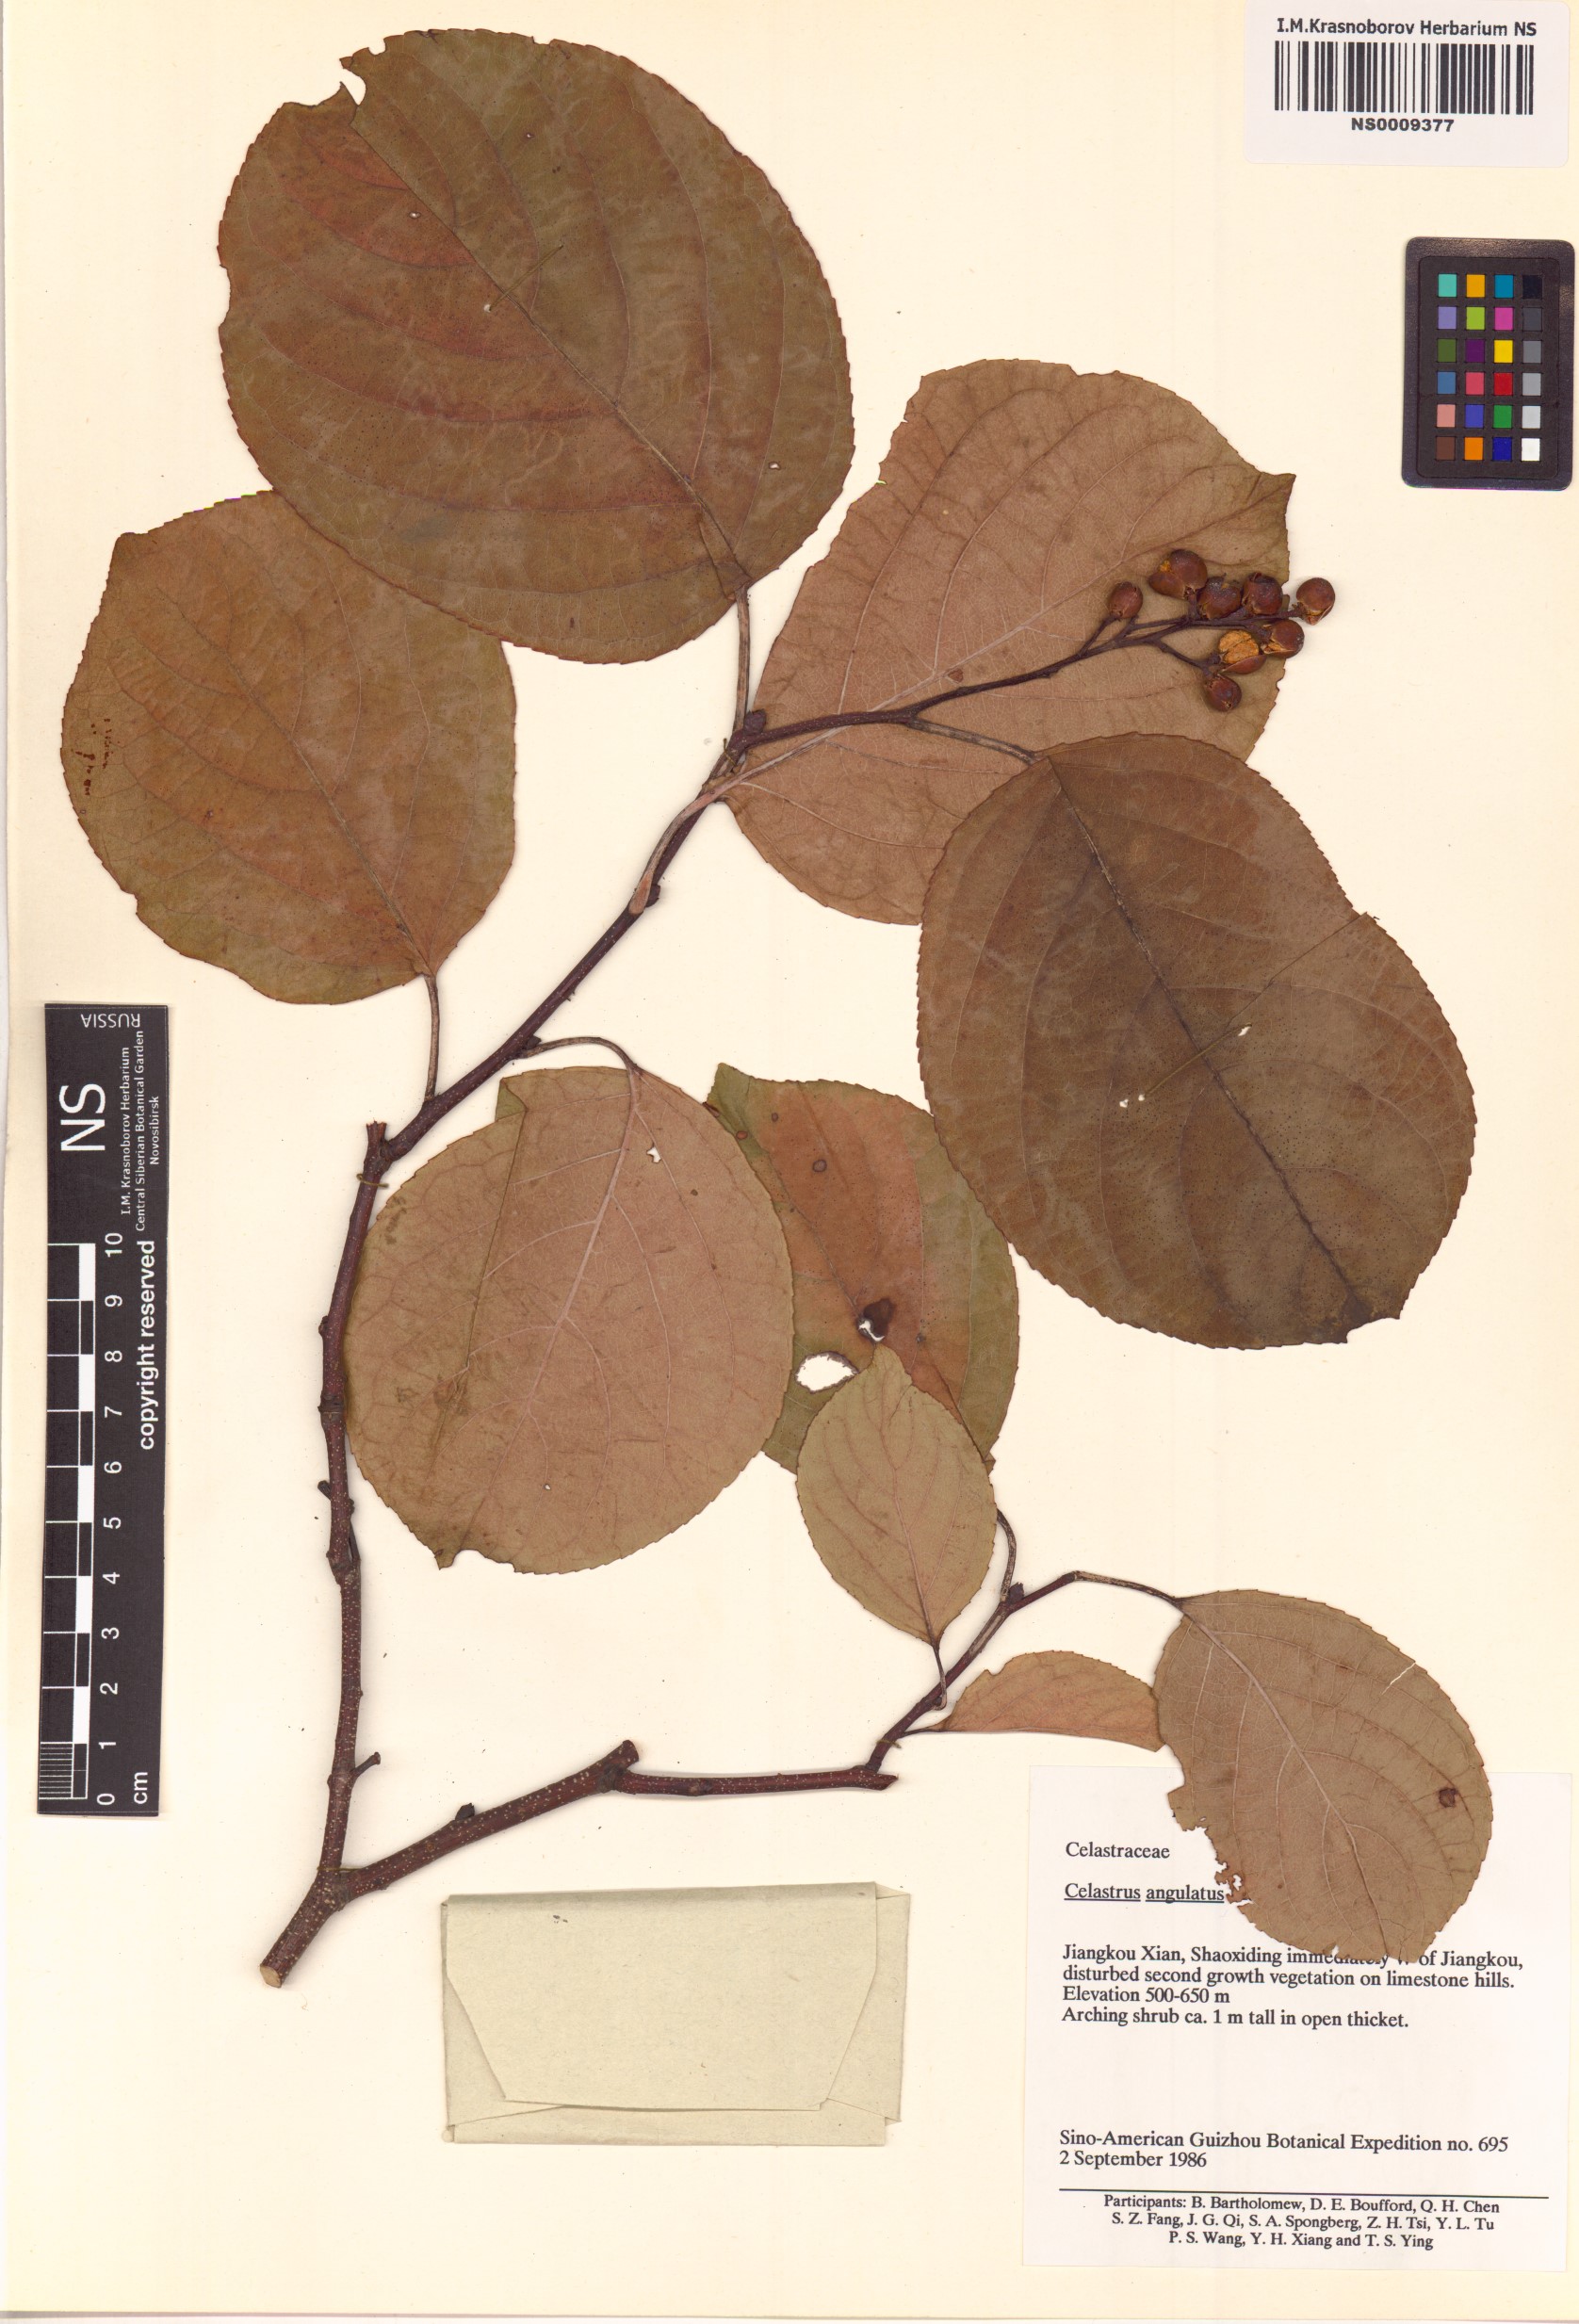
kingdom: Plantae
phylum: Tracheophyta
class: Magnoliopsida
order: Celastrales
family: Celastraceae
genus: Celastrus
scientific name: Celastrus angulatus
